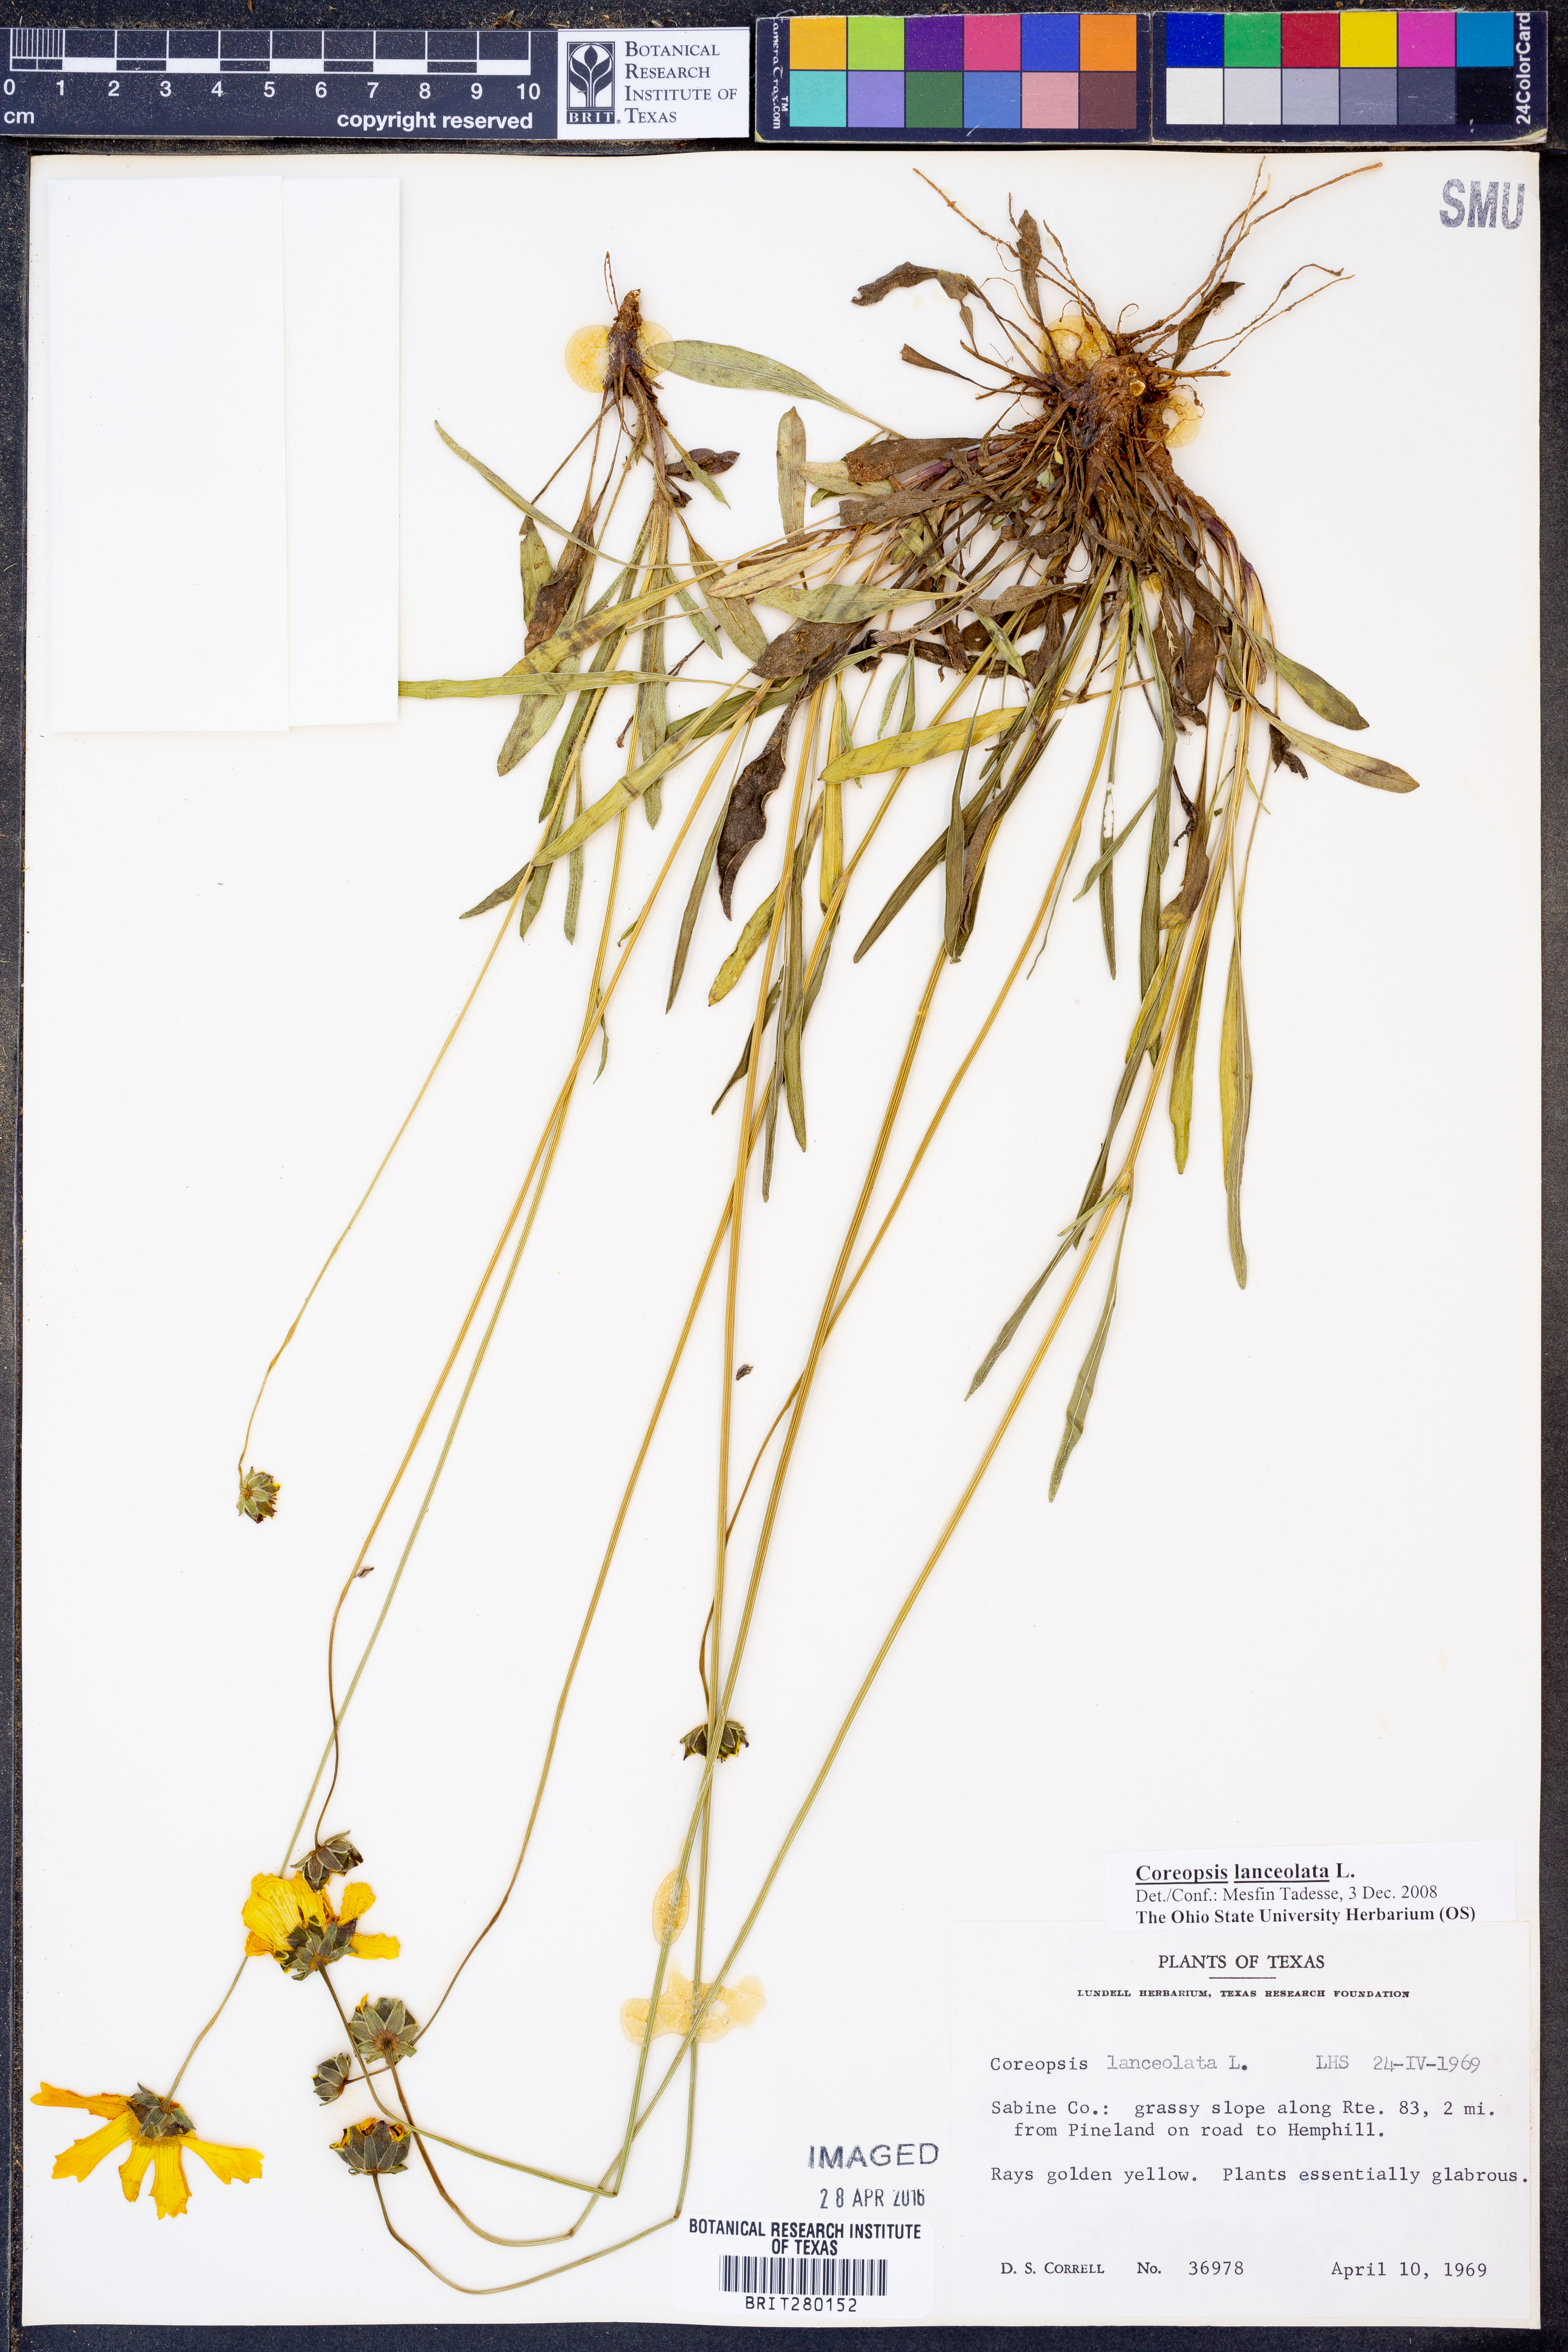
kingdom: Plantae
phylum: Tracheophyta
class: Magnoliopsida
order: Asterales
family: Asteraceae
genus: Coreopsis
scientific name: Coreopsis lanceolata
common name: Garden coreopsis
